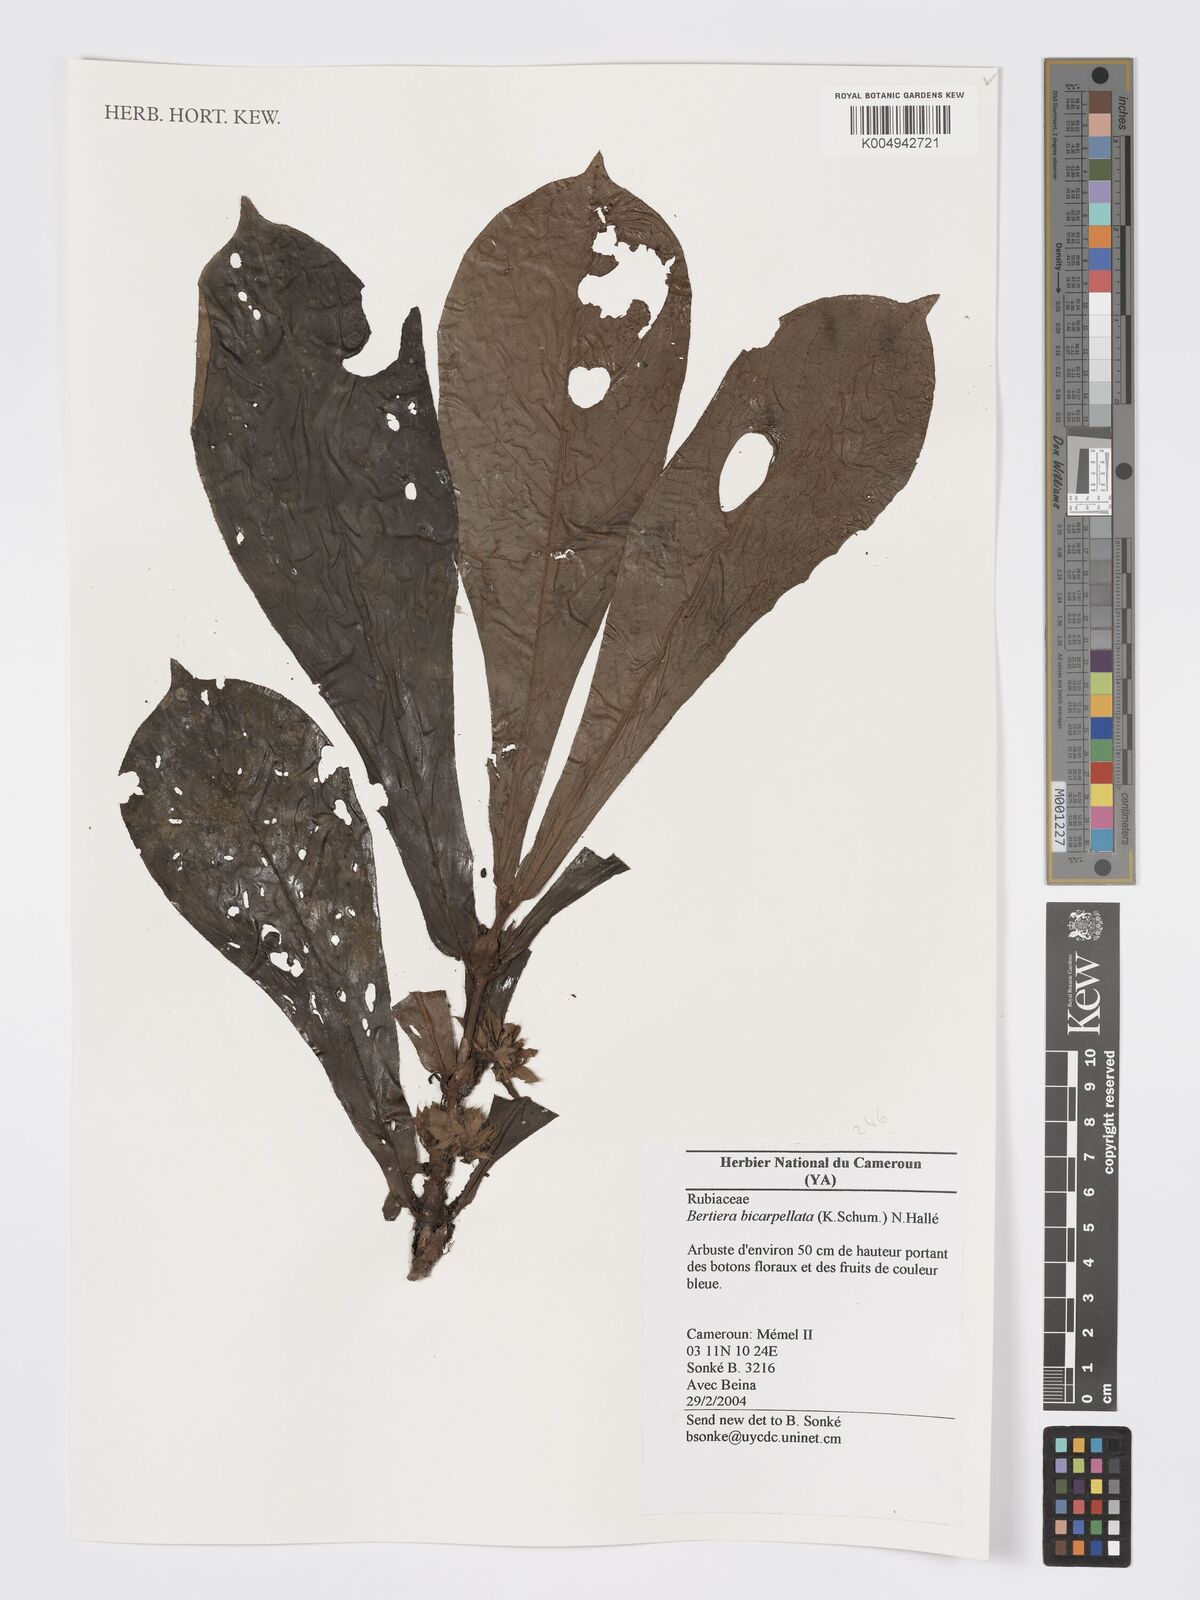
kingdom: Plantae
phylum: Tracheophyta
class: Magnoliopsida
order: Gentianales
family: Rubiaceae
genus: Bertiera
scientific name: Bertiera bicarpellata
